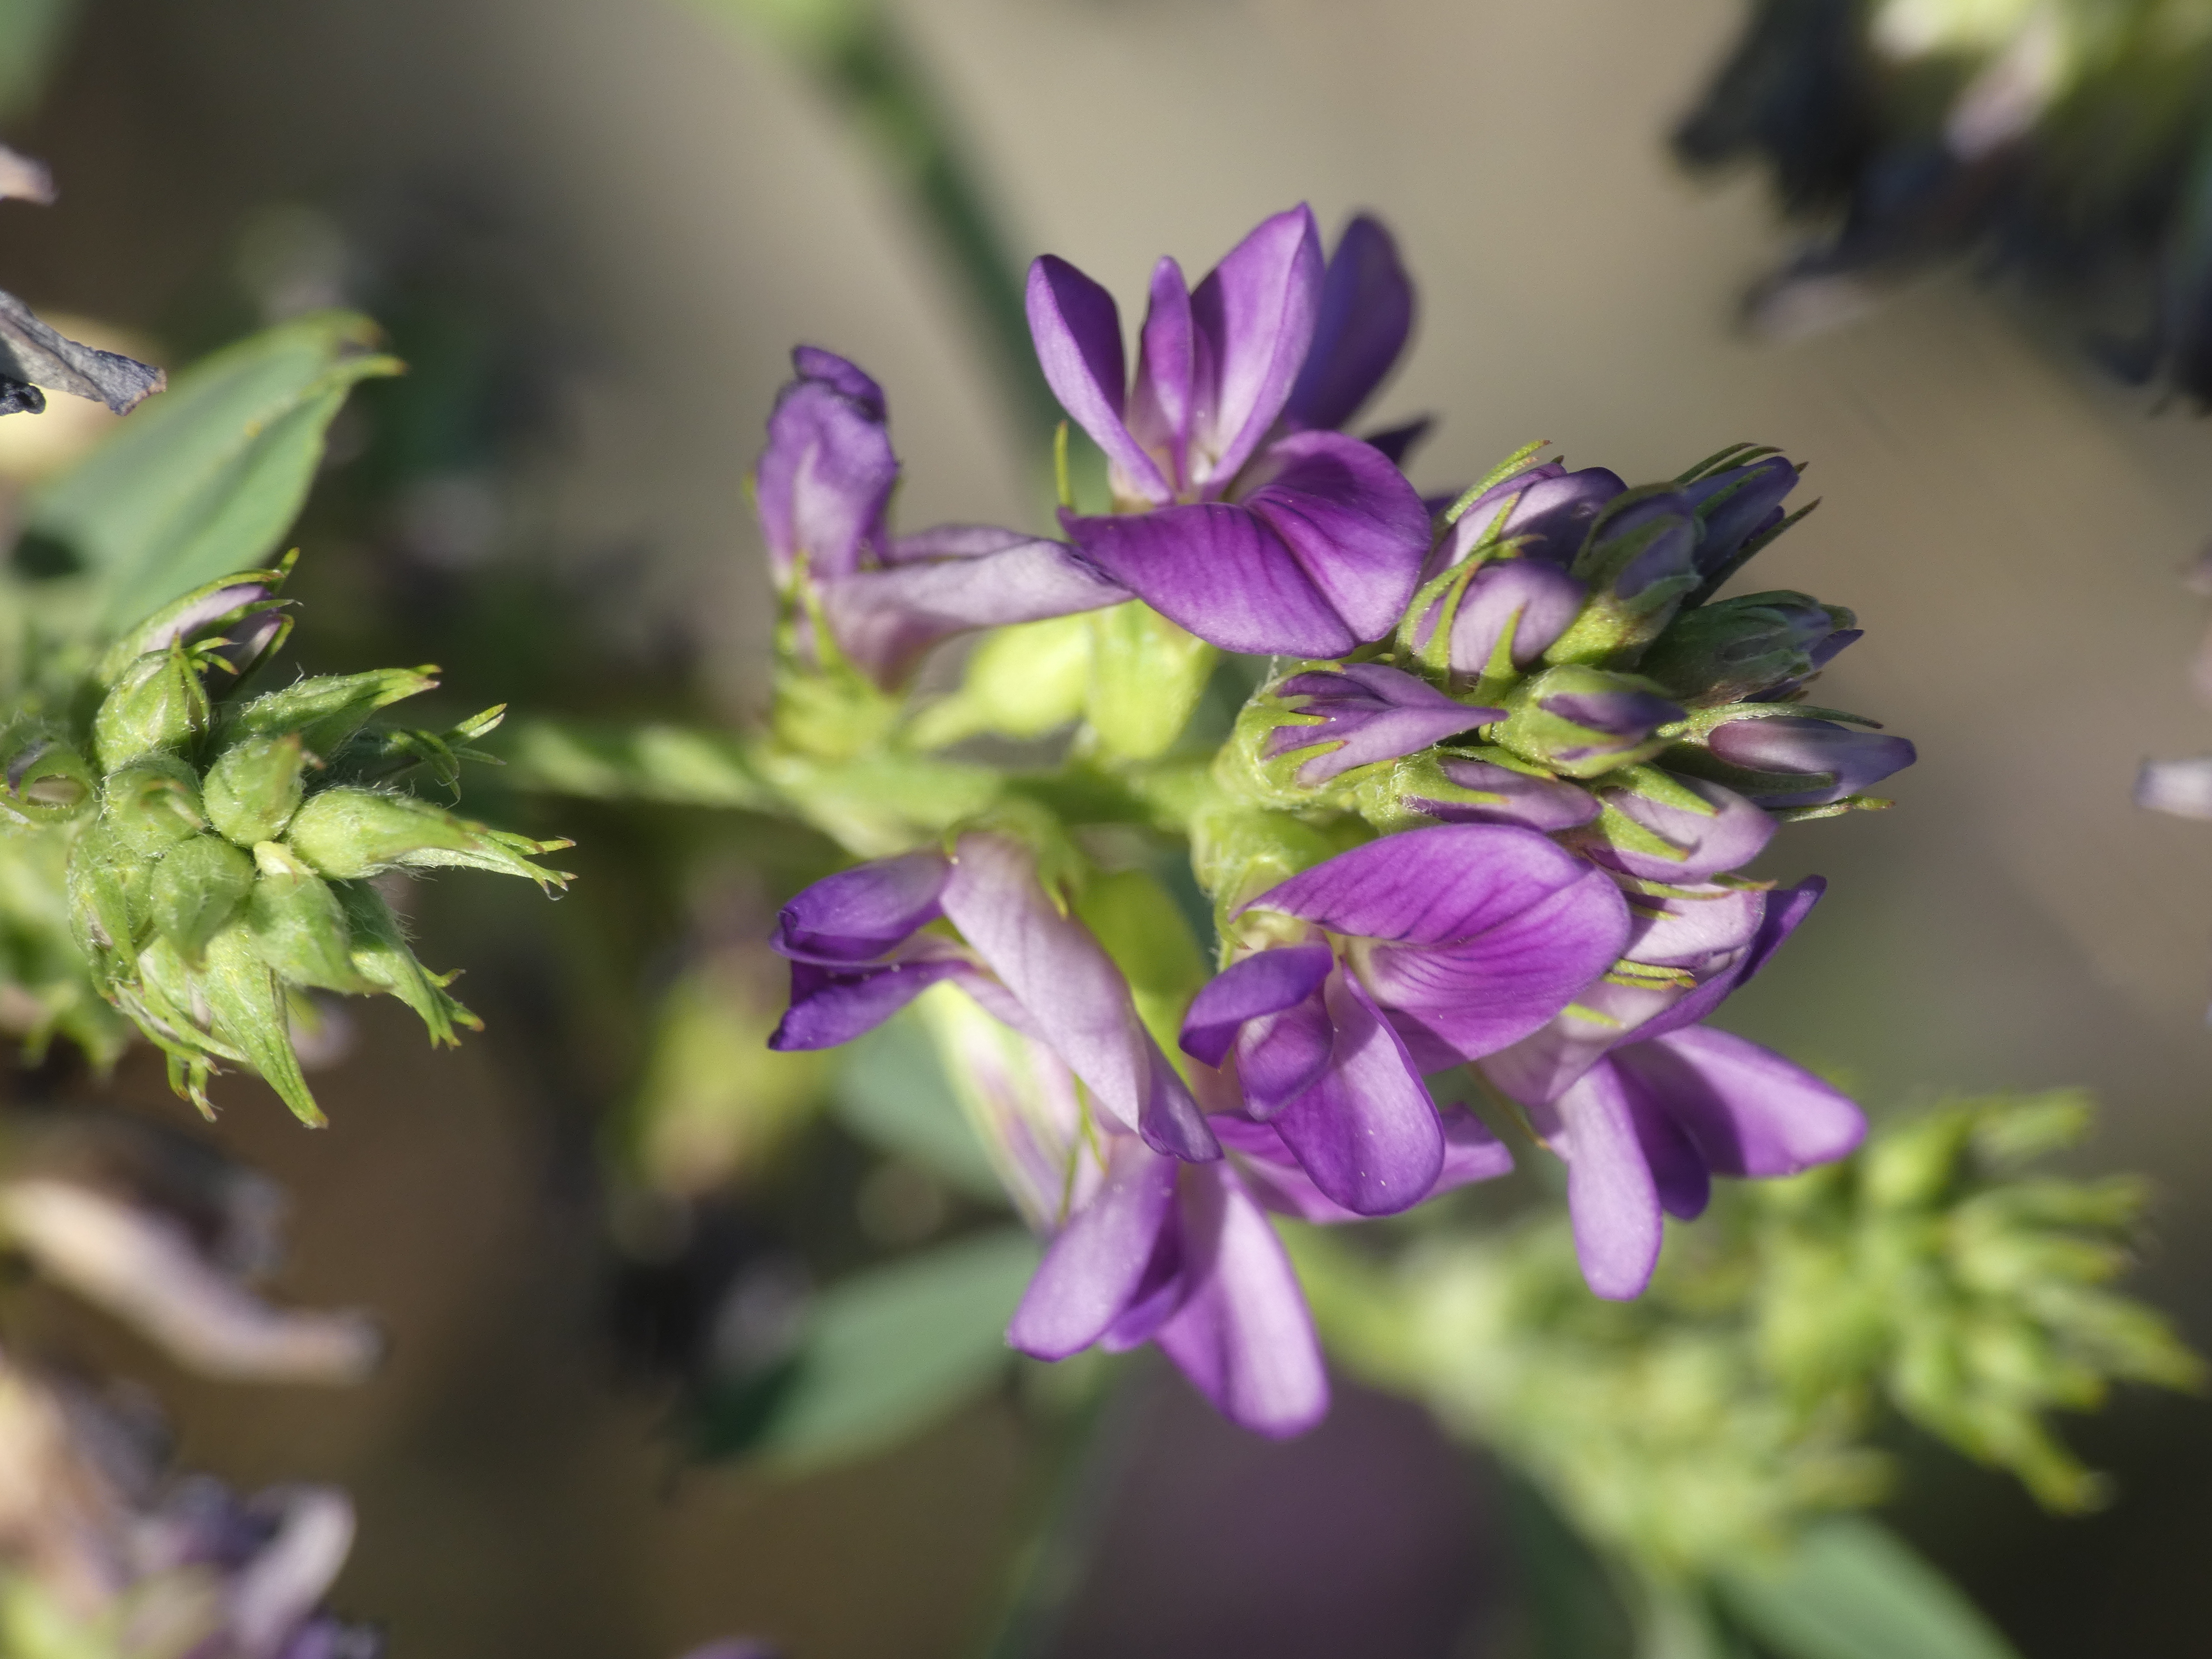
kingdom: Plantae
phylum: Tracheophyta
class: Magnoliopsida
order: Fabales
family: Fabaceae
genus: Medicago
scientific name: Medicago sativa
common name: Lucerne
